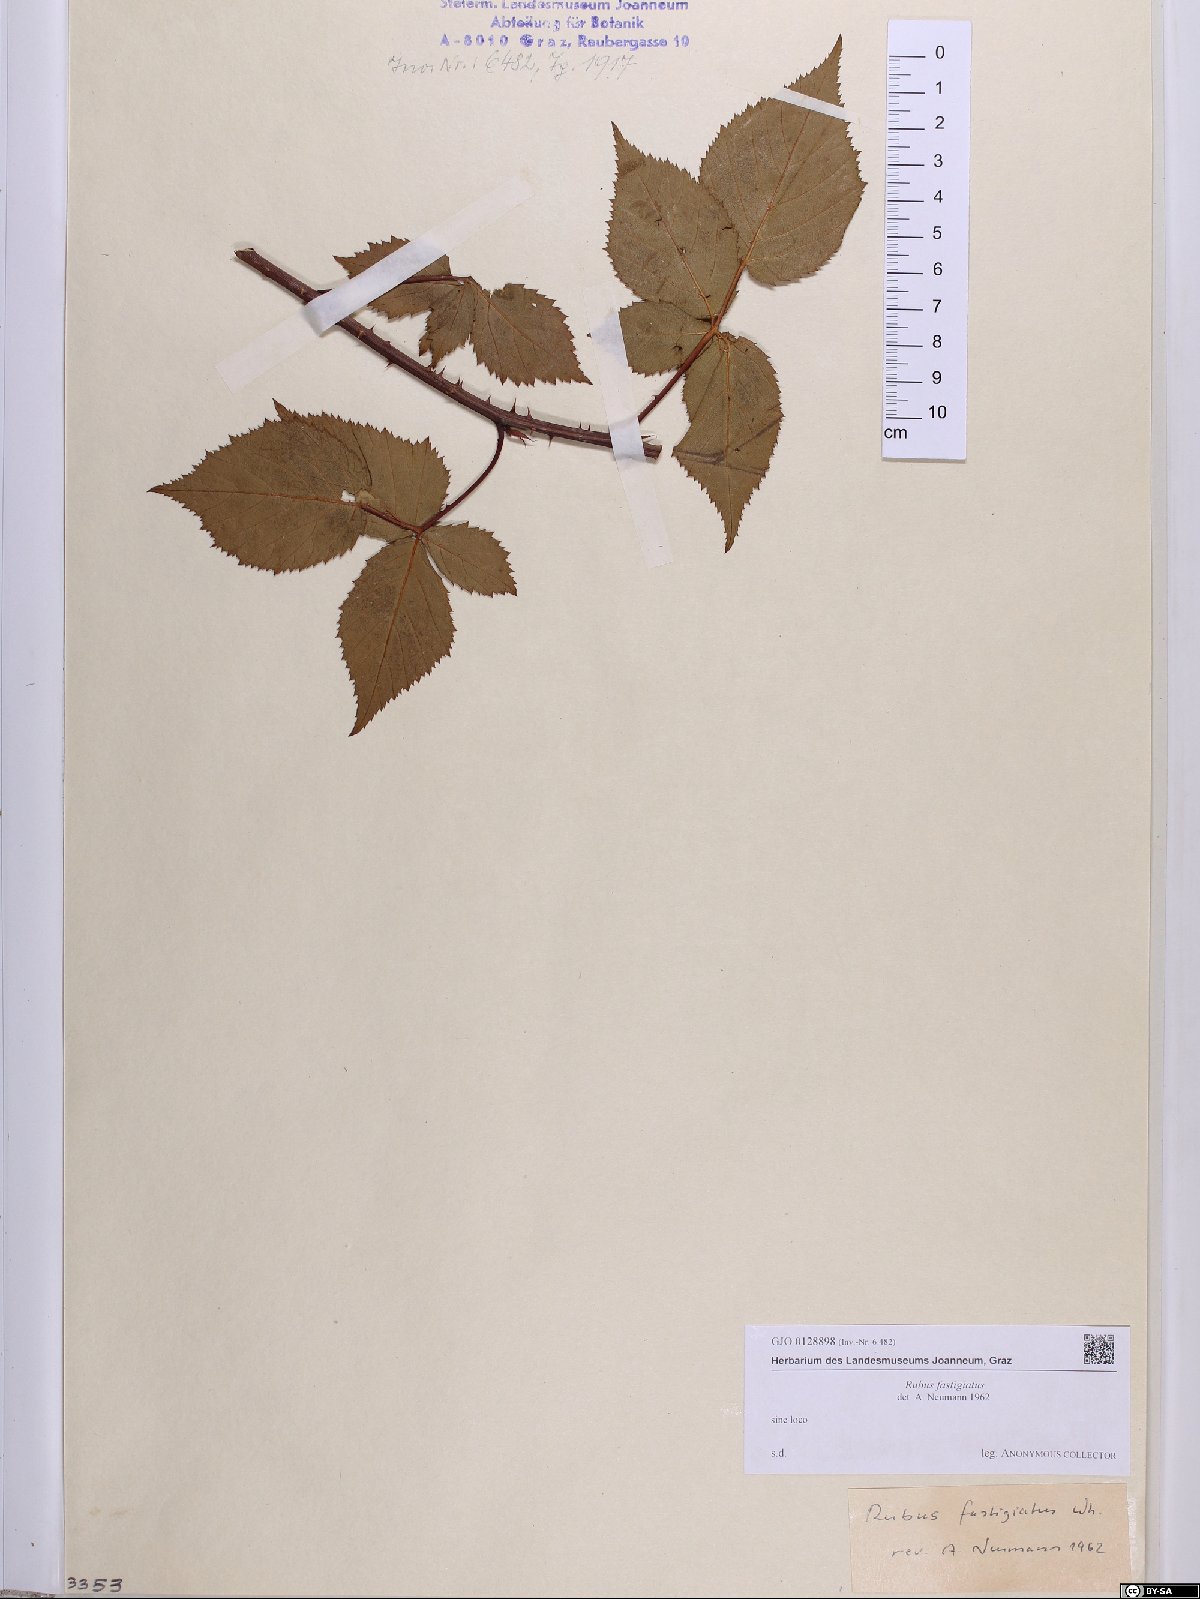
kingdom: Plantae
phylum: Tracheophyta
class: Magnoliopsida
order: Rosales
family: Rosaceae
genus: Rubus
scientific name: Rubus polonicus
